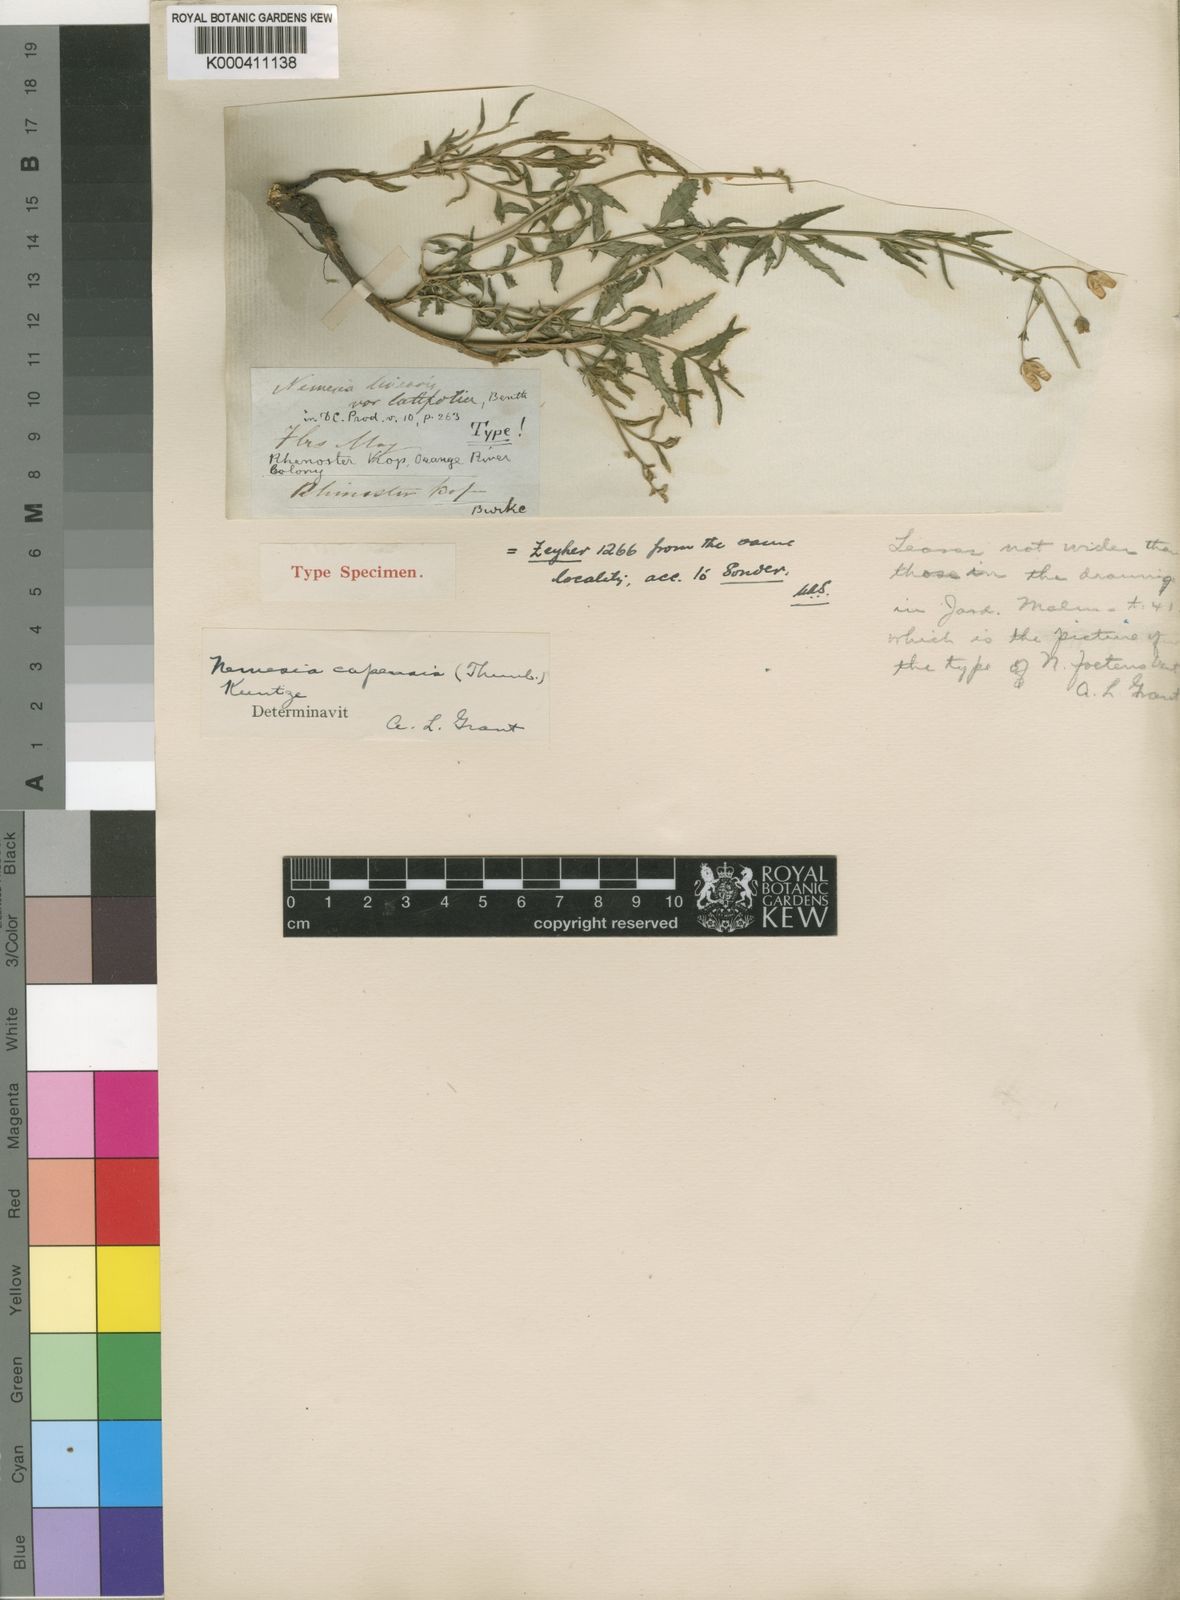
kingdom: Plantae
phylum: Tracheophyta
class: Magnoliopsida
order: Lamiales
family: Scrophulariaceae
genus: Nemesia
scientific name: Nemesia fruticans
